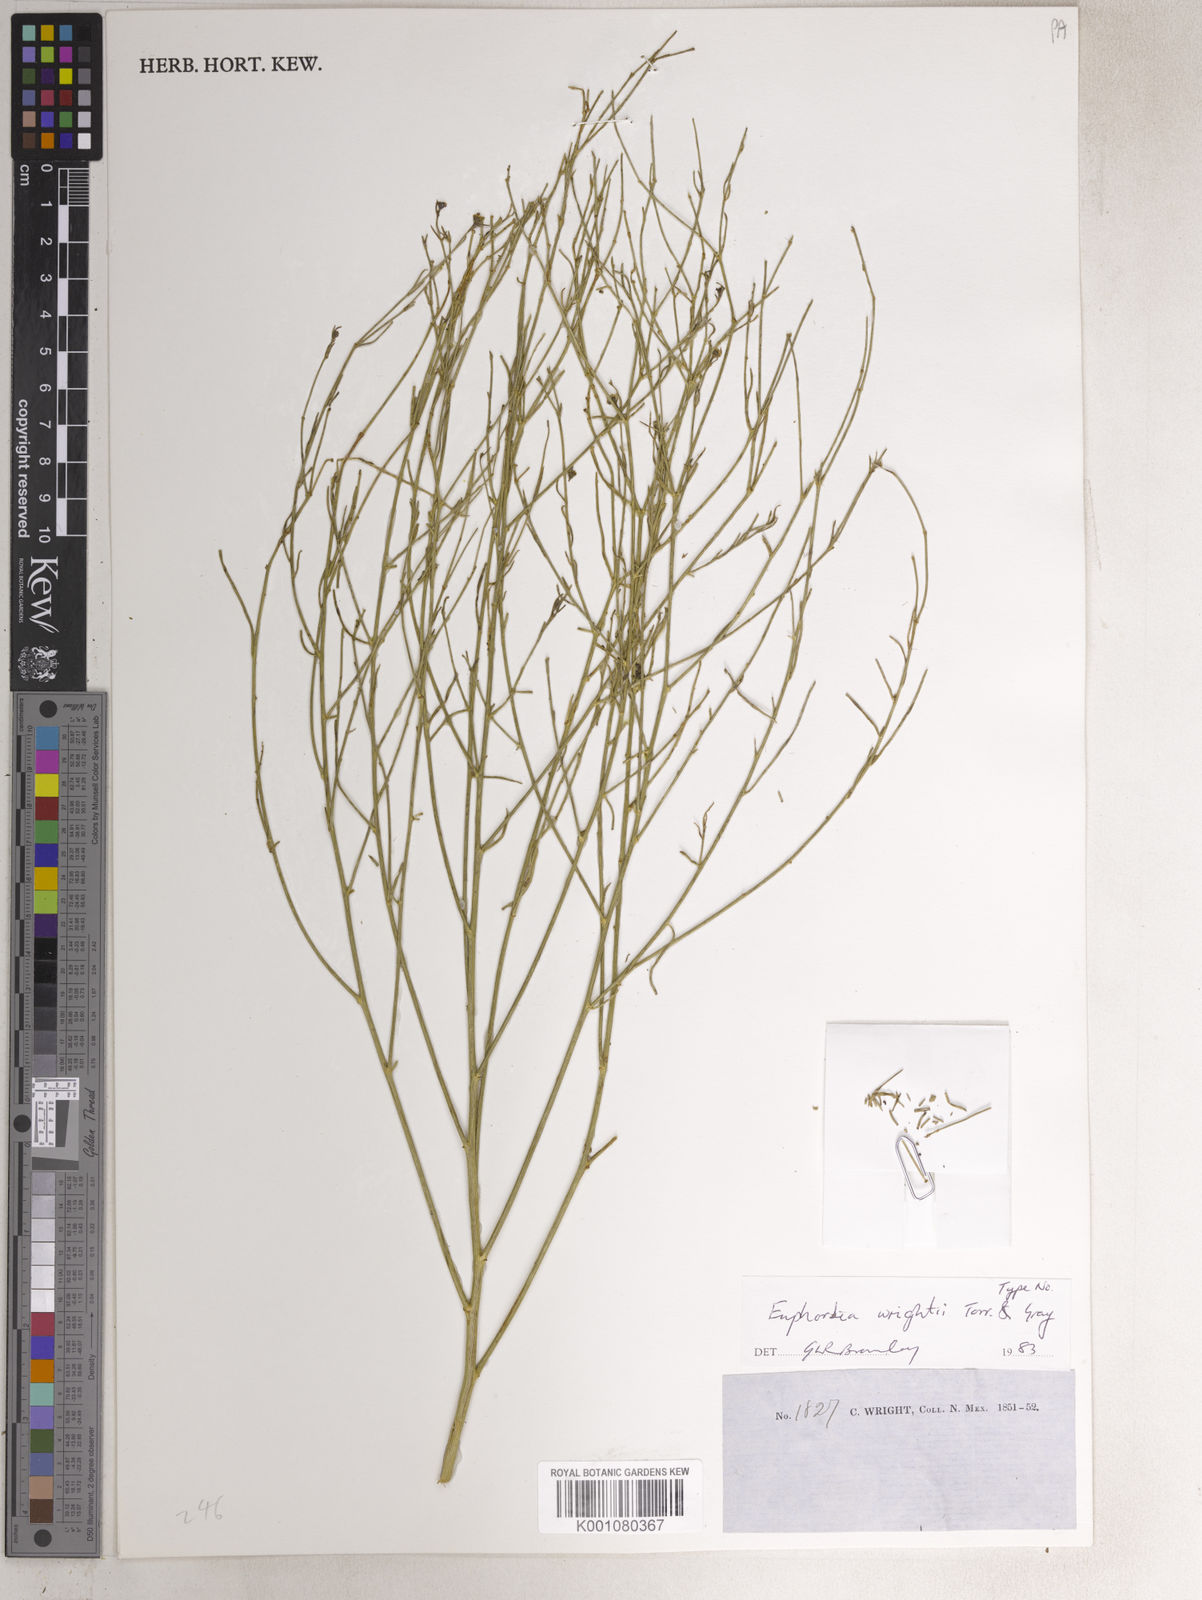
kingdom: Plantae
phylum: Tracheophyta
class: Magnoliopsida
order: Malpighiales
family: Euphorbiaceae
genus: Euphorbia
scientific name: Euphorbia wrightii
